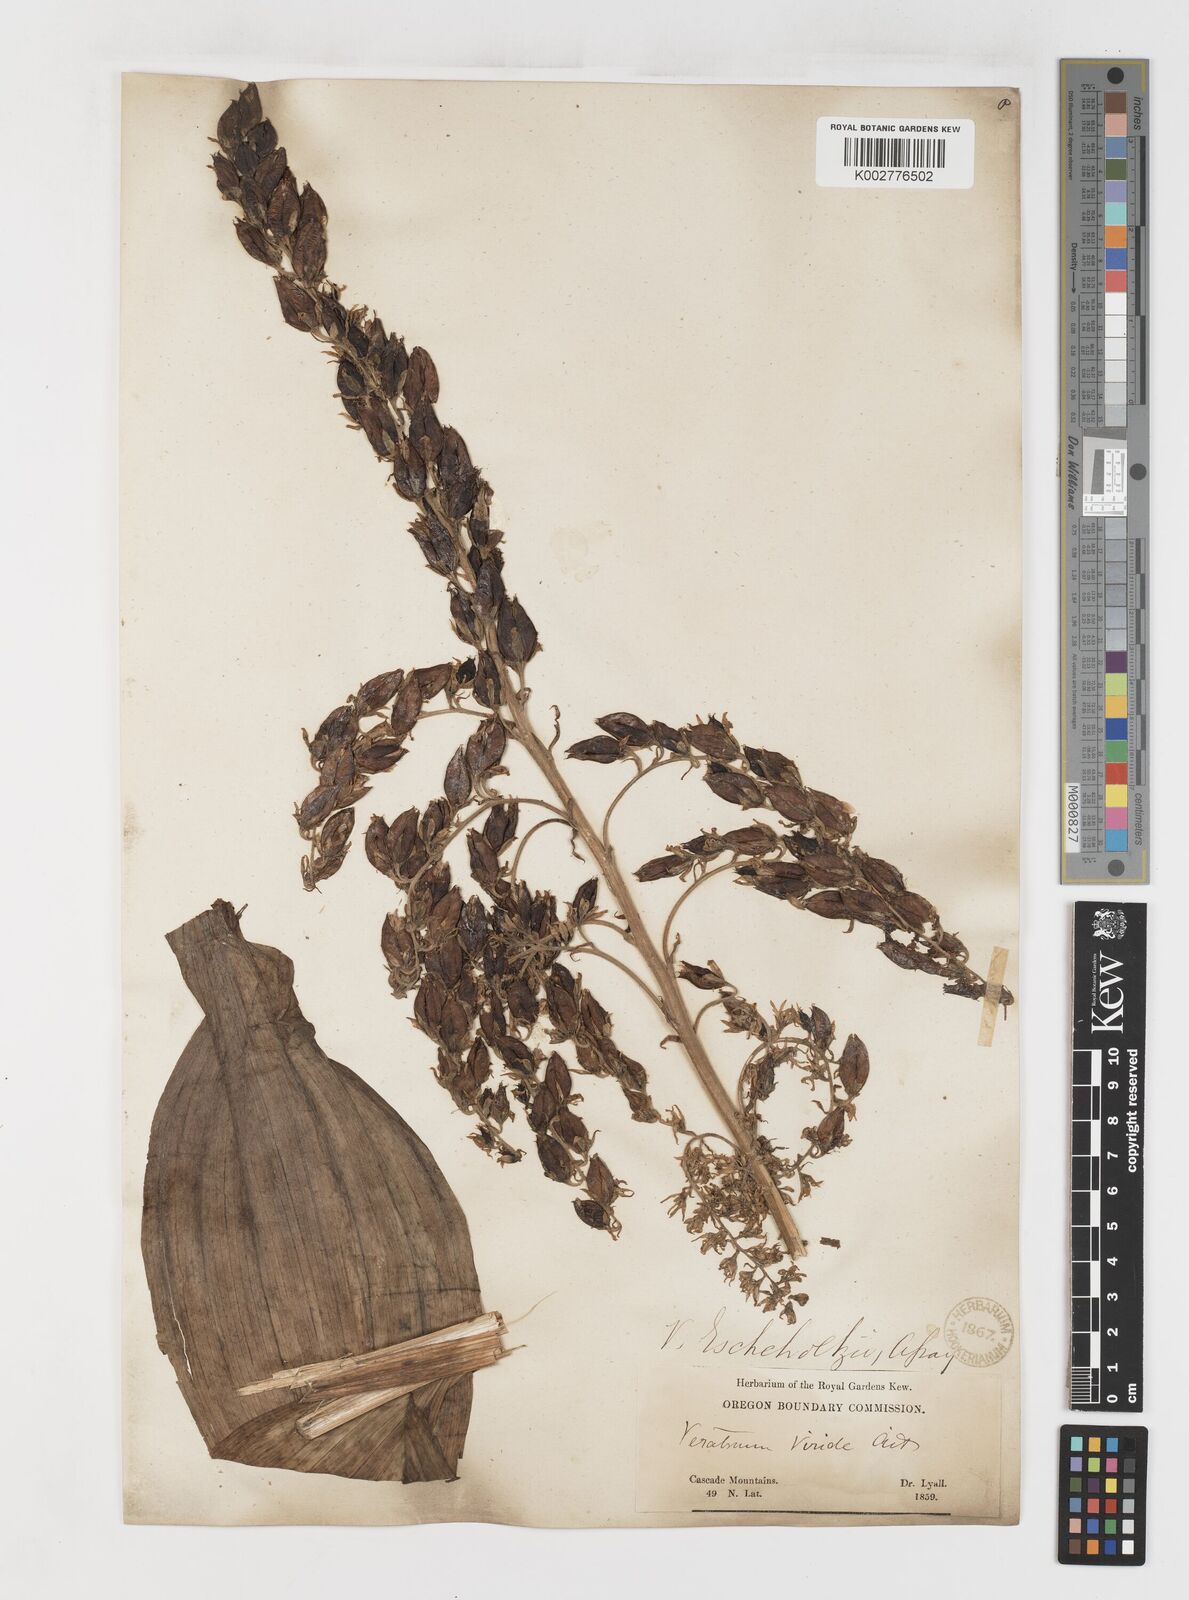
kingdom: Plantae
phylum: Tracheophyta
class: Liliopsida
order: Liliales
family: Melanthiaceae
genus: Veratrum
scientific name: Veratrum viride
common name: American false hellebore
